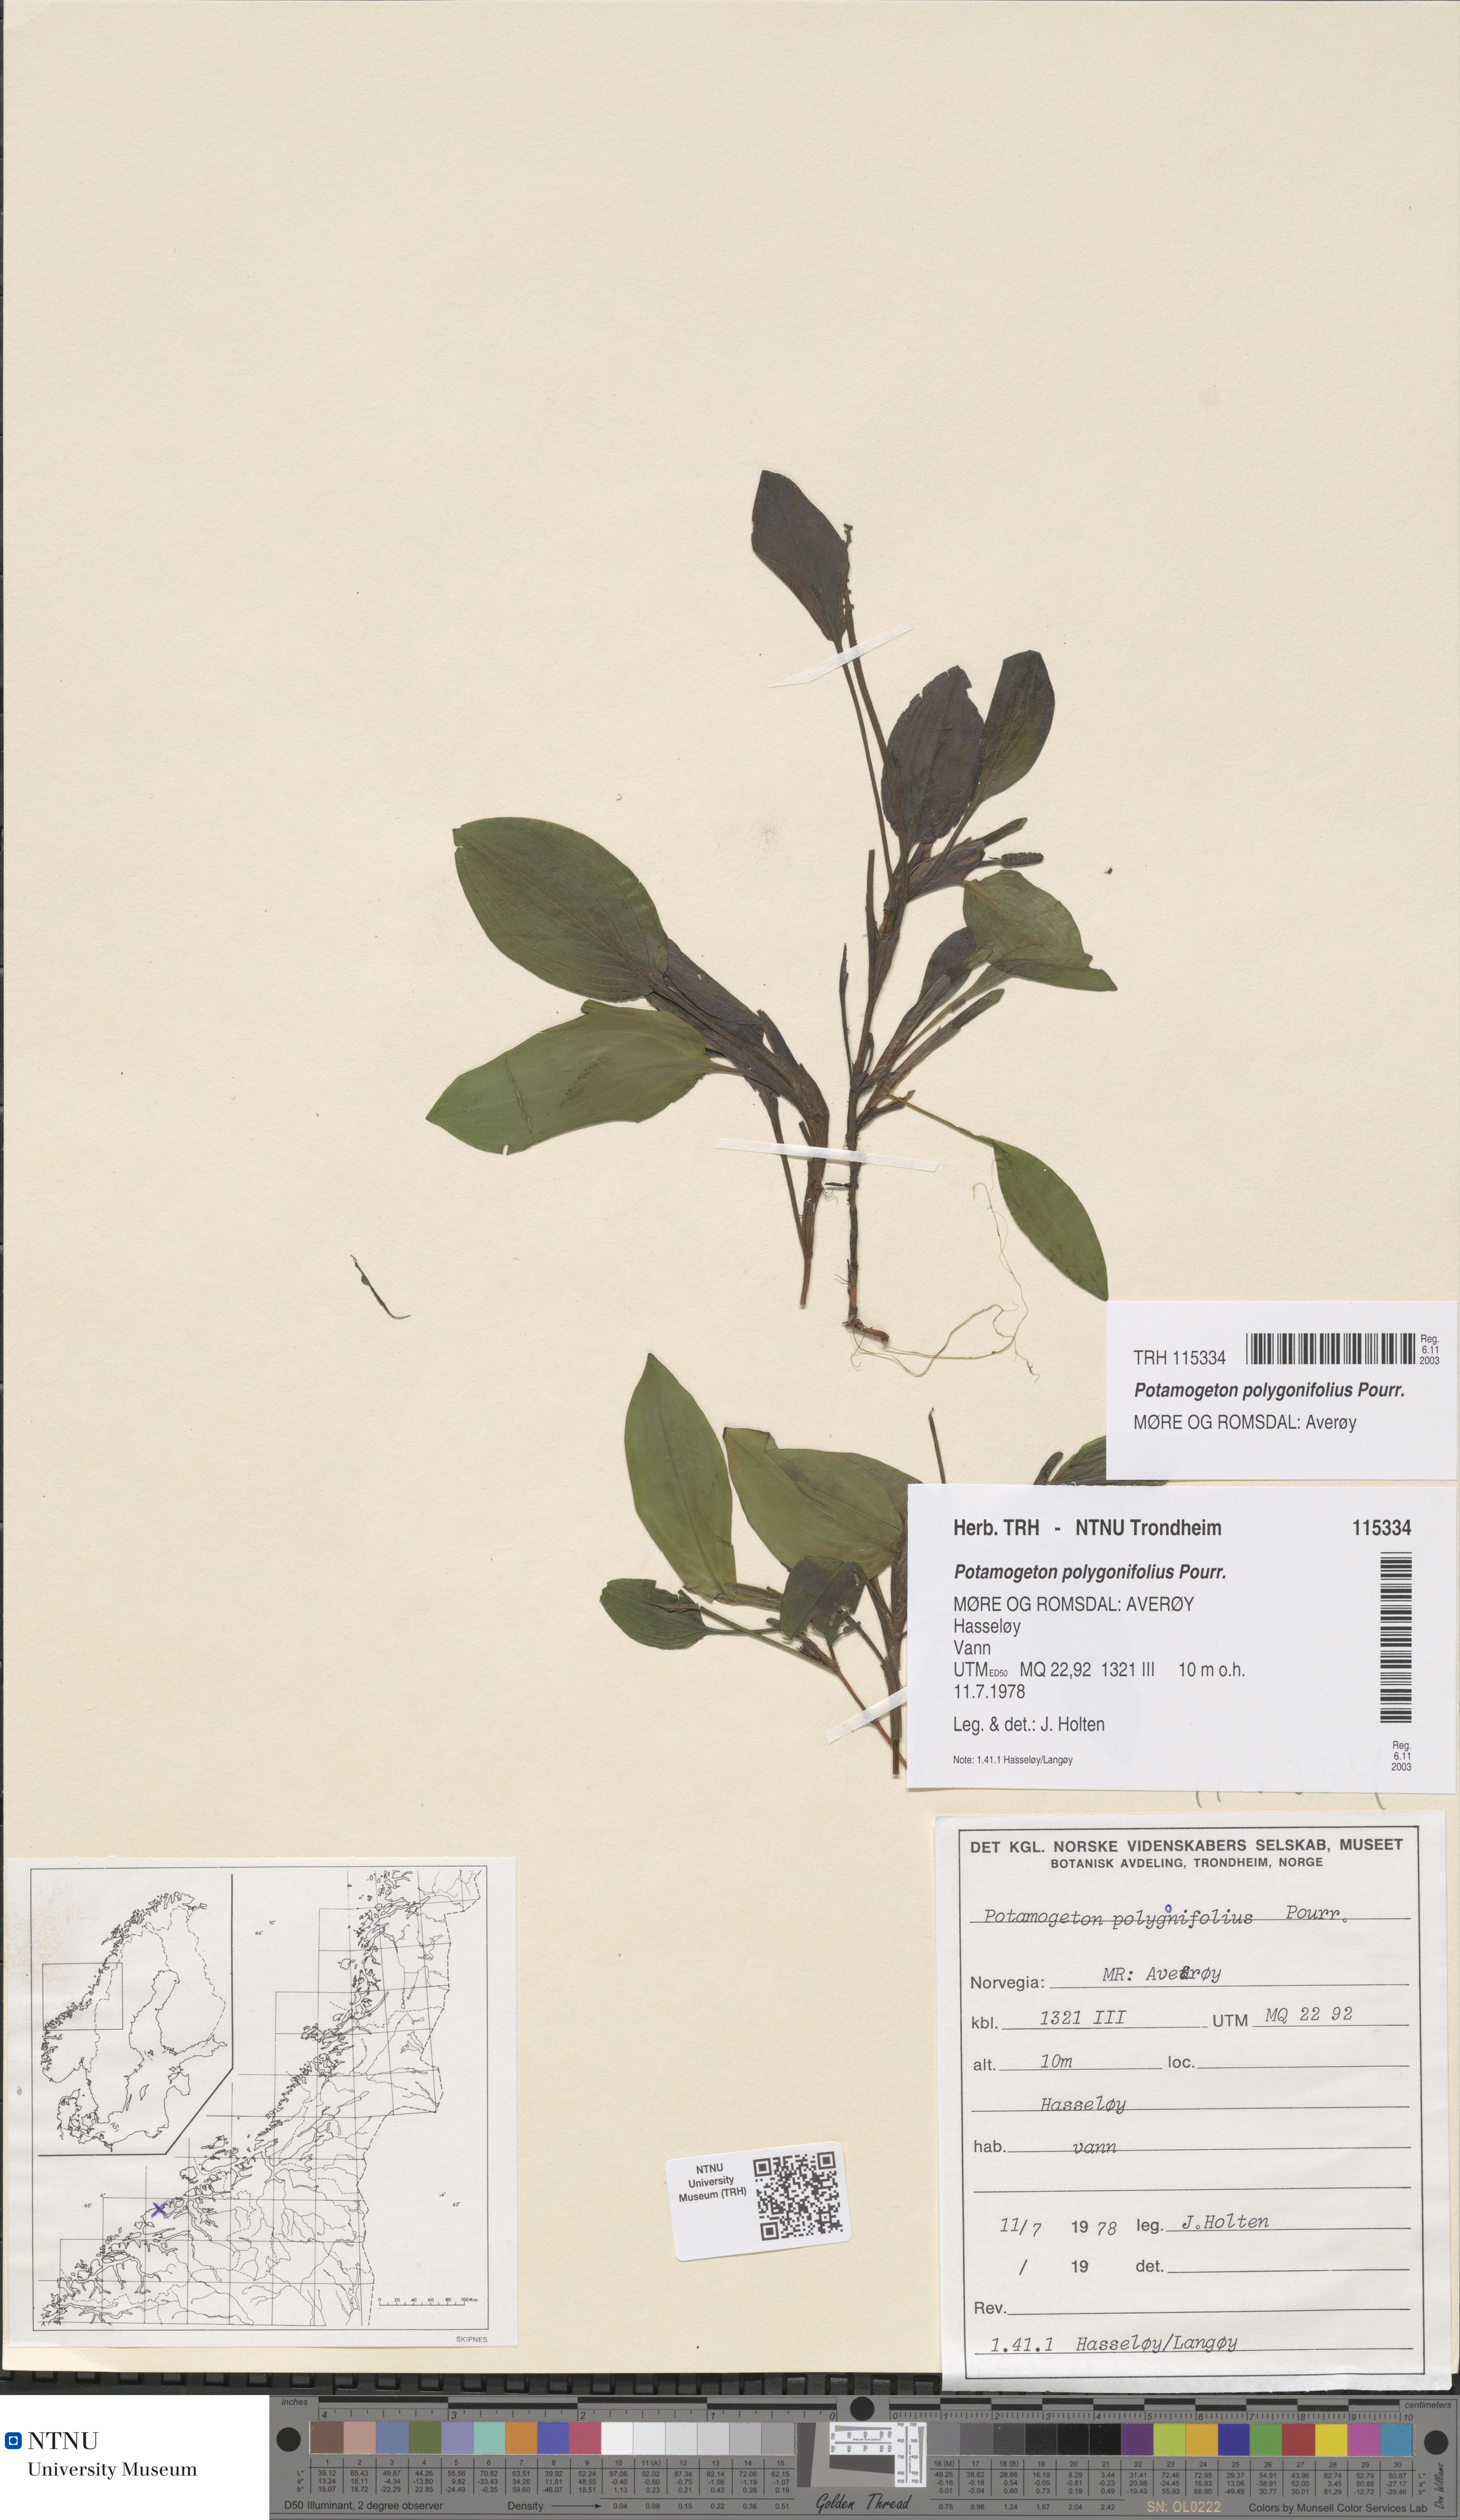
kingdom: Plantae
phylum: Tracheophyta
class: Liliopsida
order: Alismatales
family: Potamogetonaceae
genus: Potamogeton
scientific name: Potamogeton polygonifolius
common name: Bog pondweed
